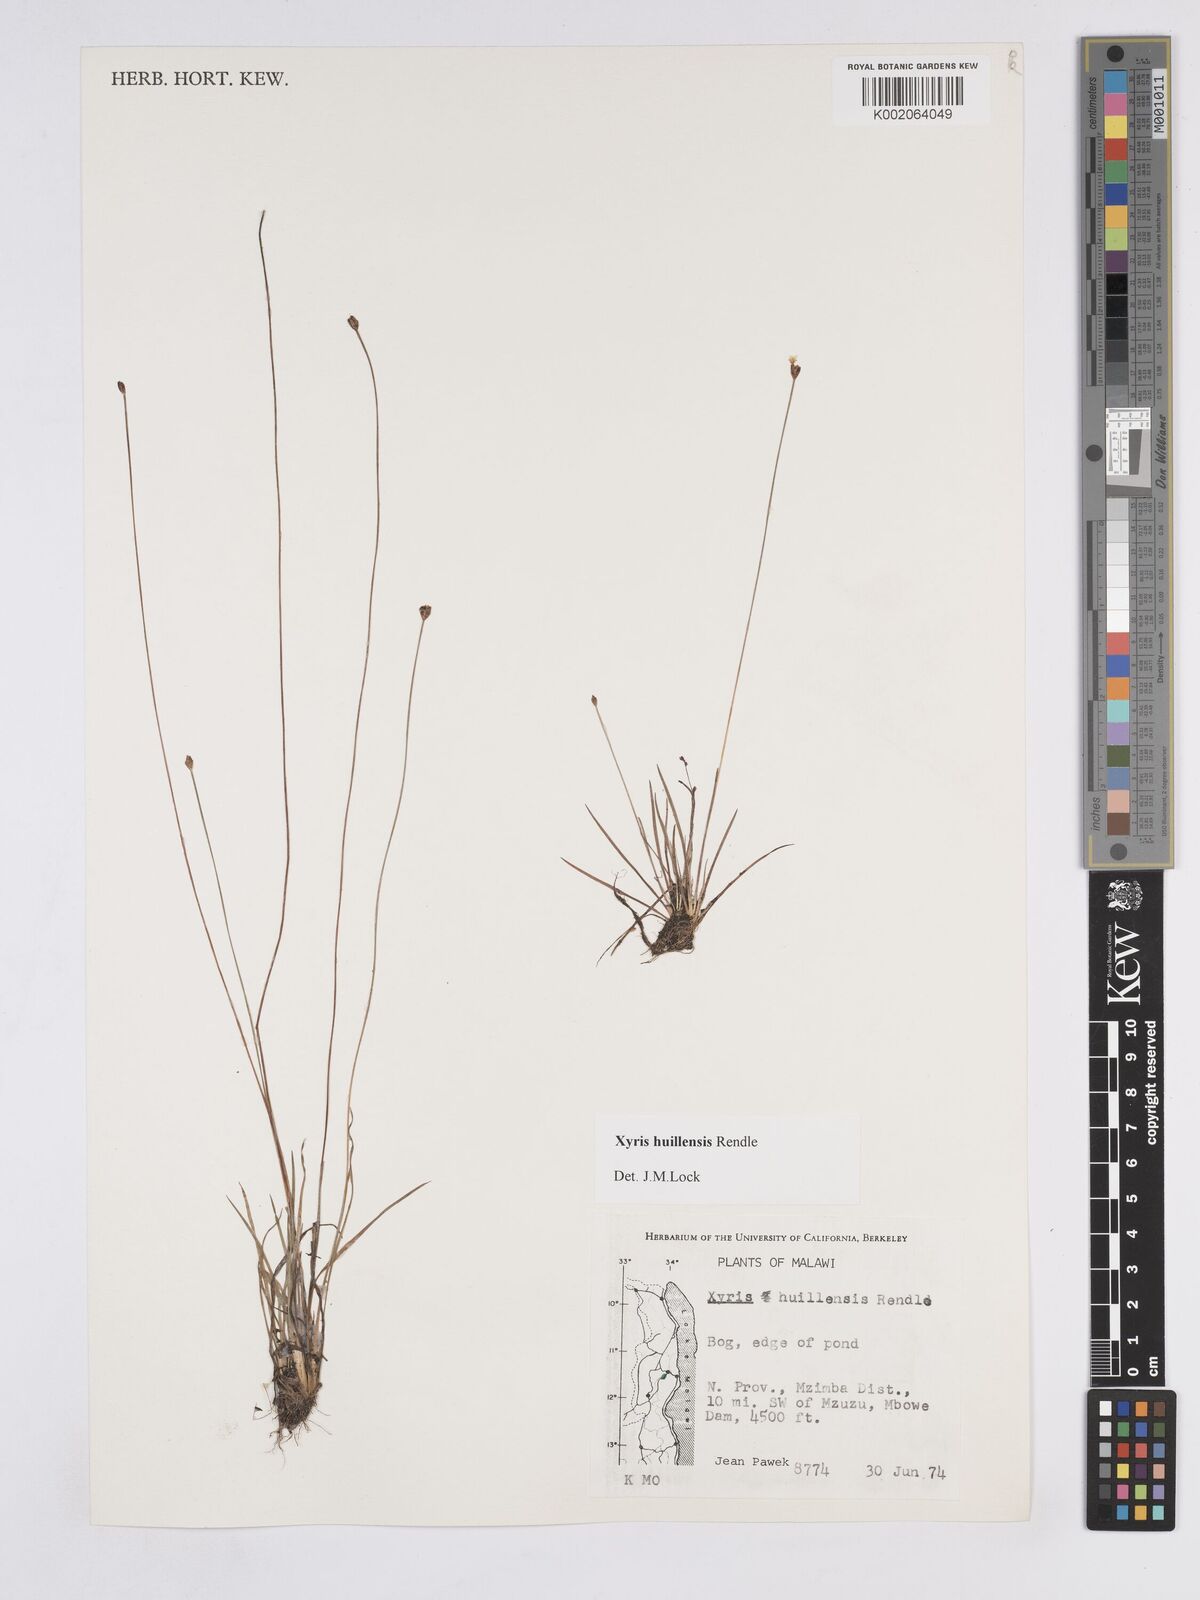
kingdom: Plantae
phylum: Tracheophyta
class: Liliopsida
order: Poales
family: Xyridaceae
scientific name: Xyridaceae
